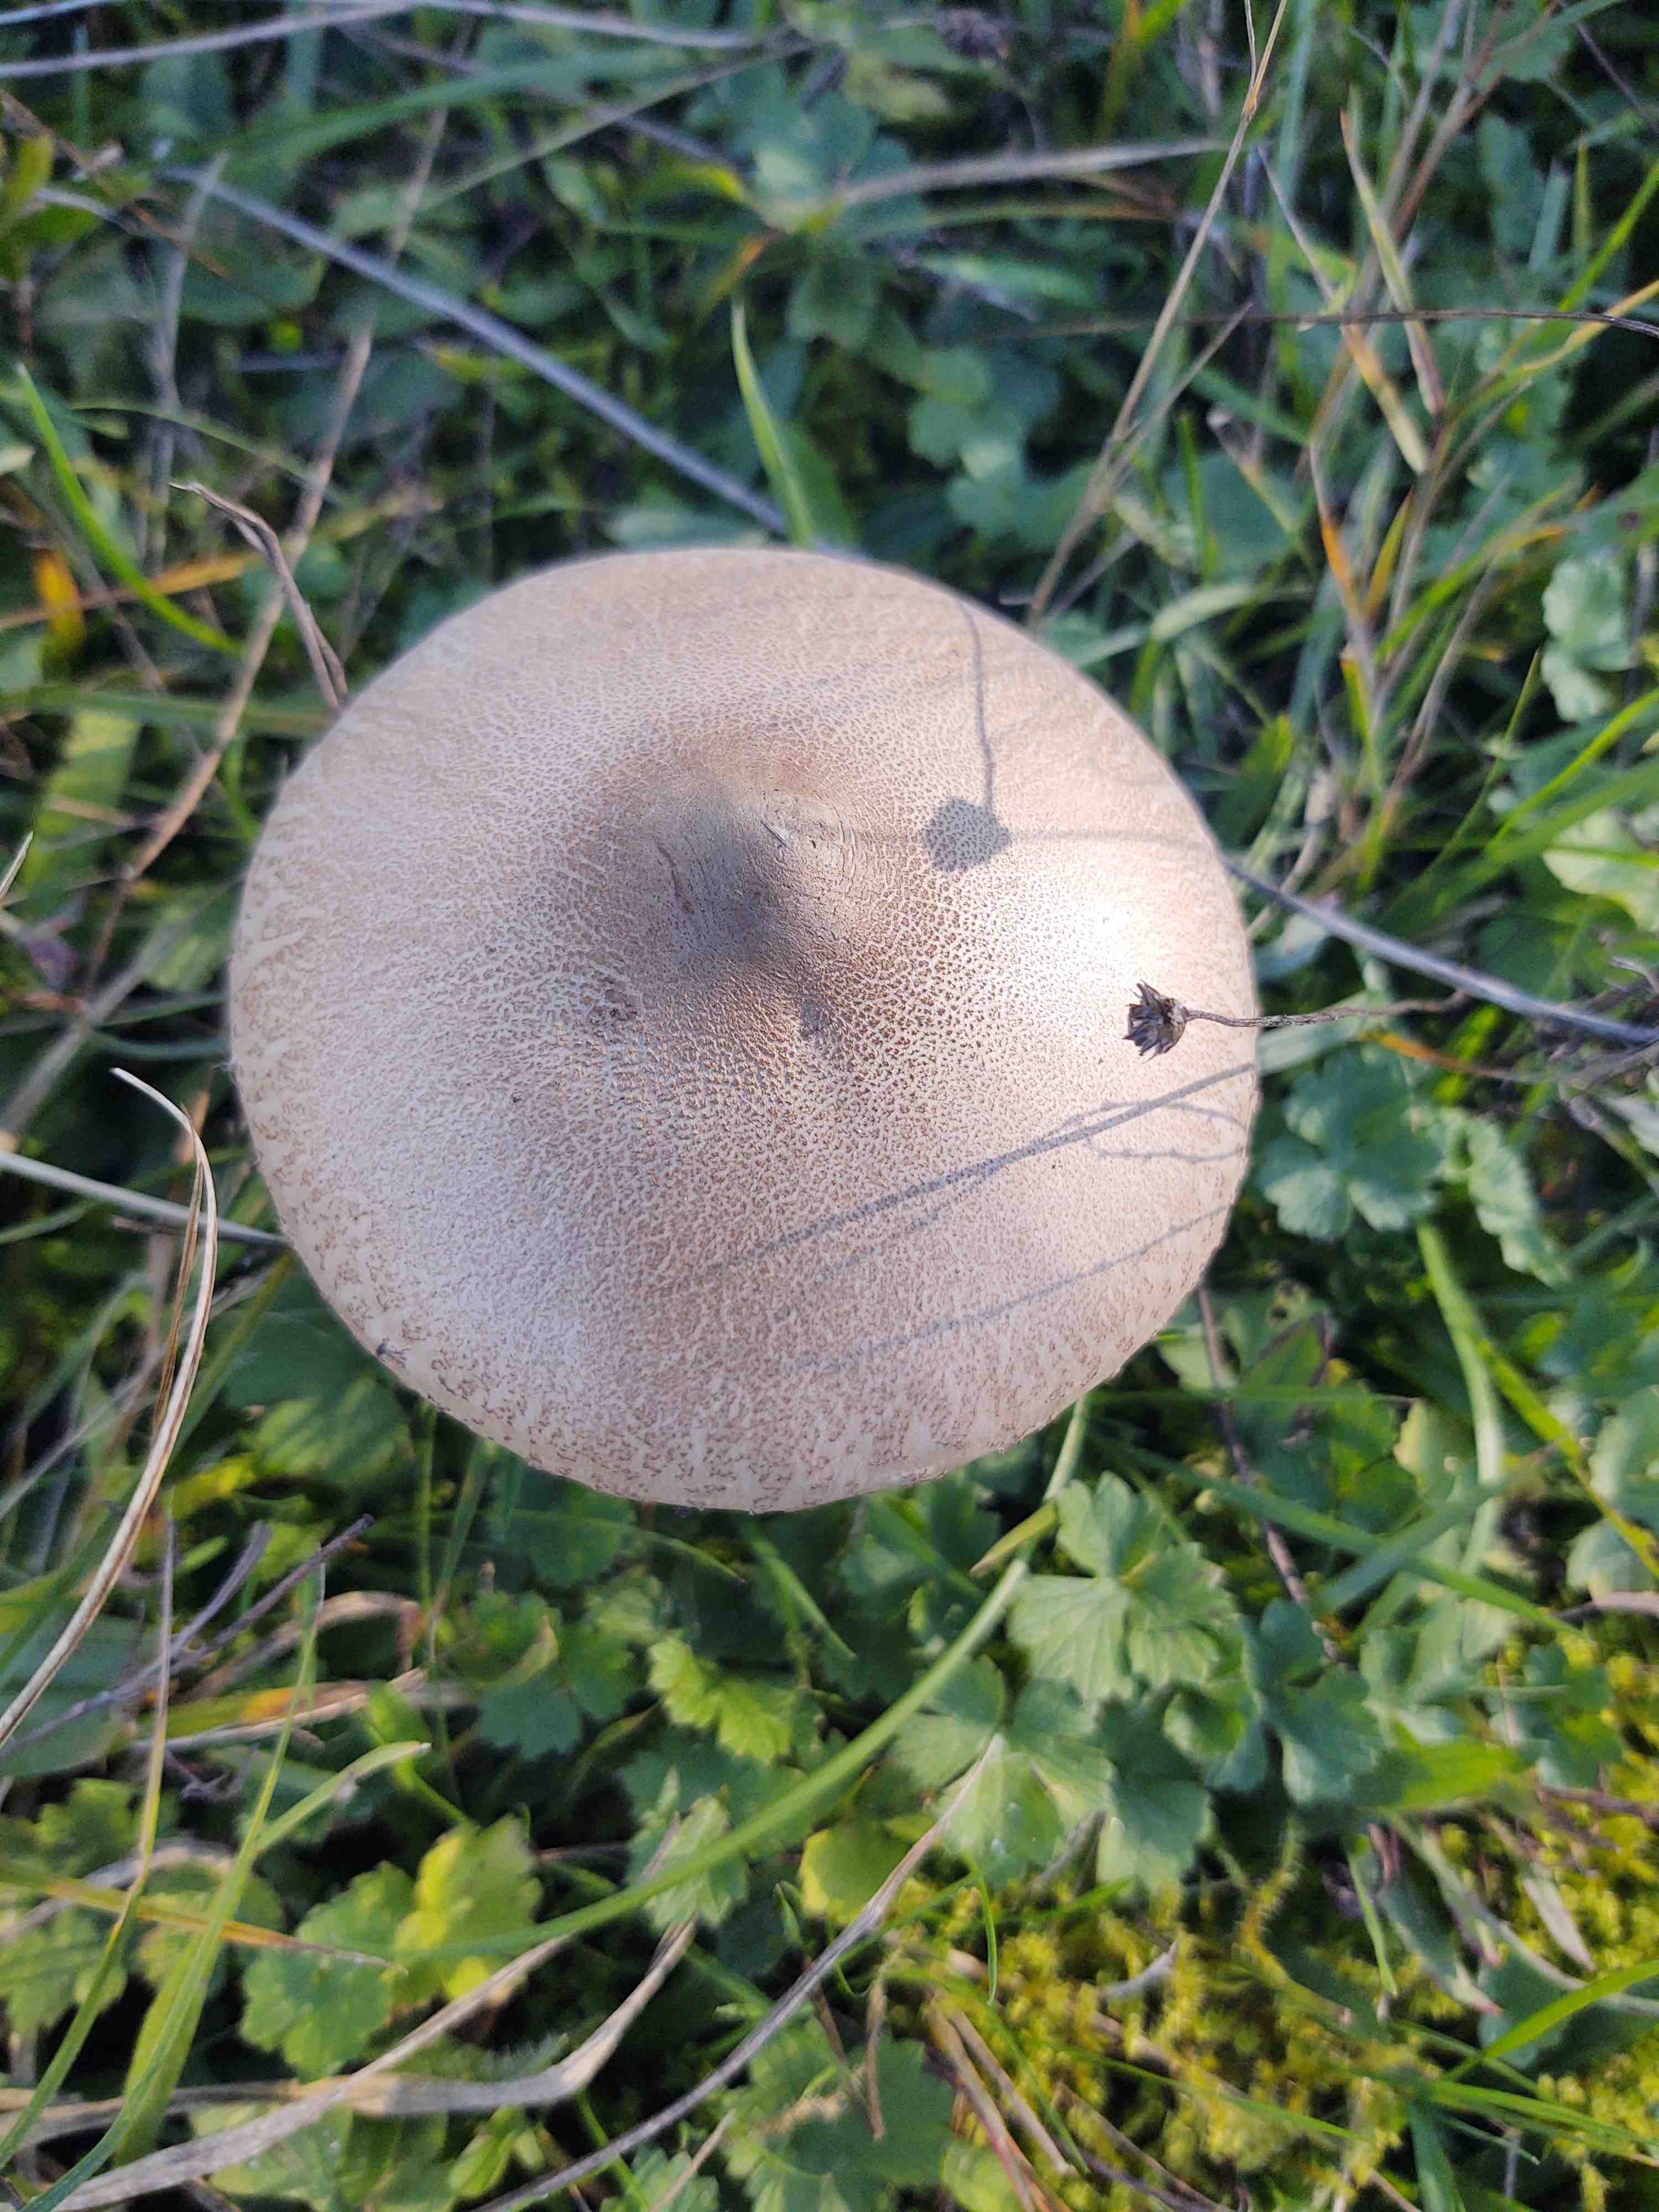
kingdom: Fungi
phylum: Basidiomycota
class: Agaricomycetes
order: Agaricales
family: Agaricaceae
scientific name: Agaricaceae
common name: champignonfamilien
